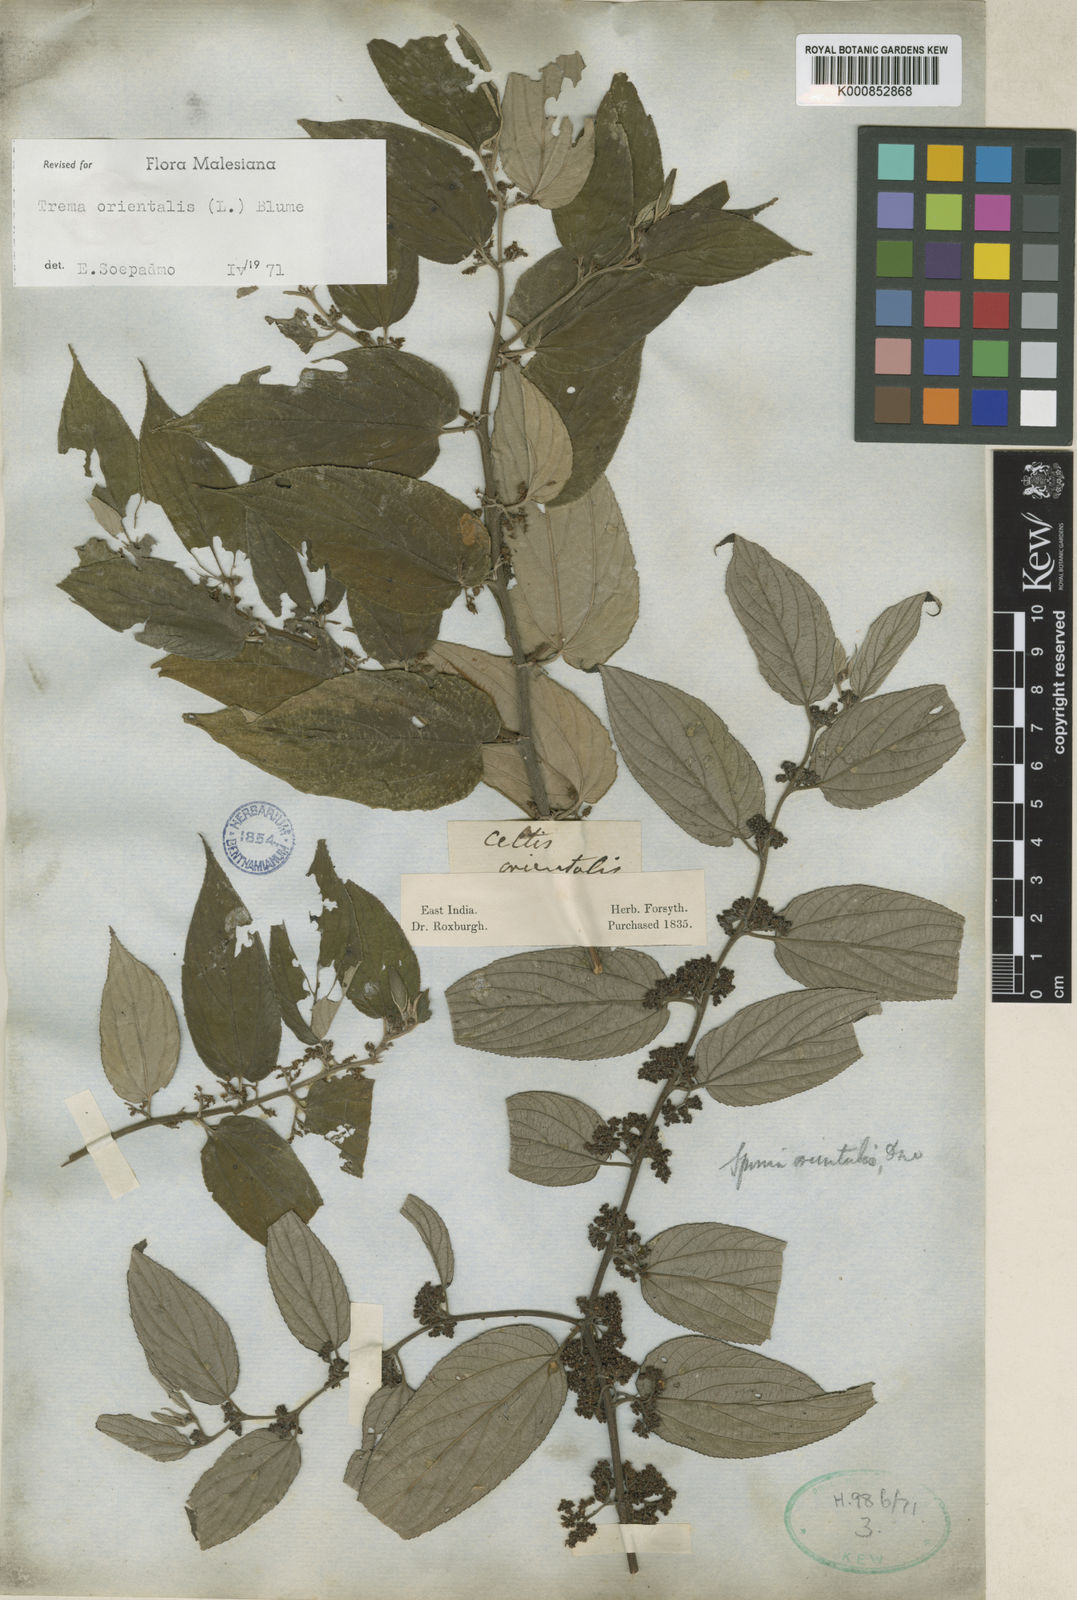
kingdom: Plantae
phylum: Tracheophyta
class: Magnoliopsida
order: Rosales
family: Cannabaceae
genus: Trema
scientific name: Trema
